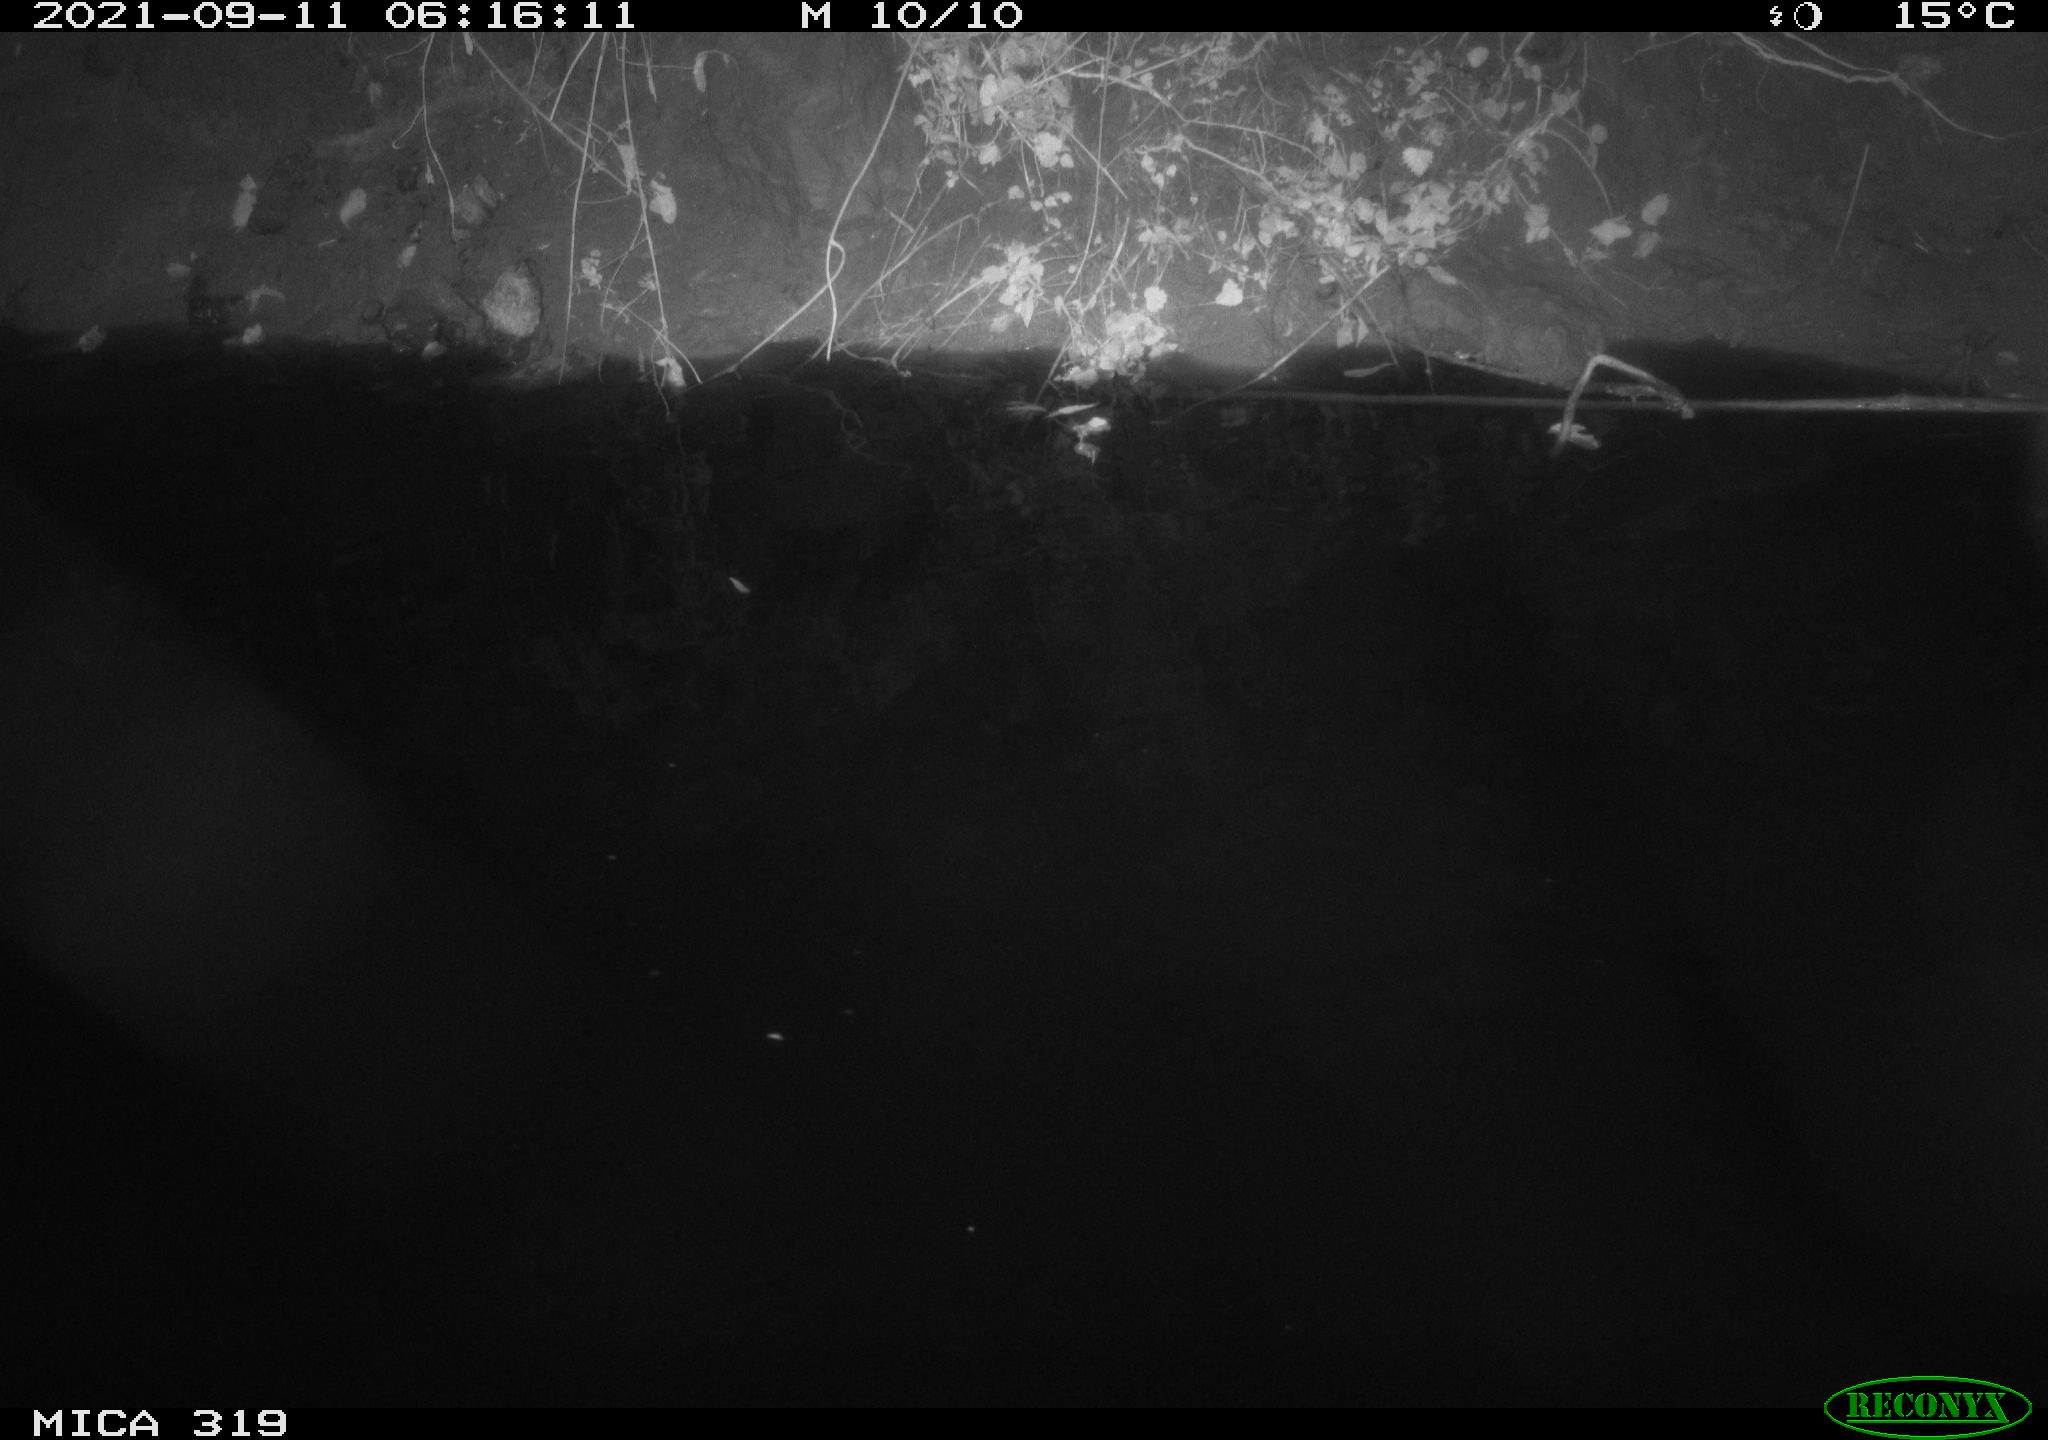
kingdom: Animalia
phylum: Chordata
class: Aves
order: Anseriformes
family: Anatidae
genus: Anas
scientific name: Anas platyrhynchos
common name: Mallard
